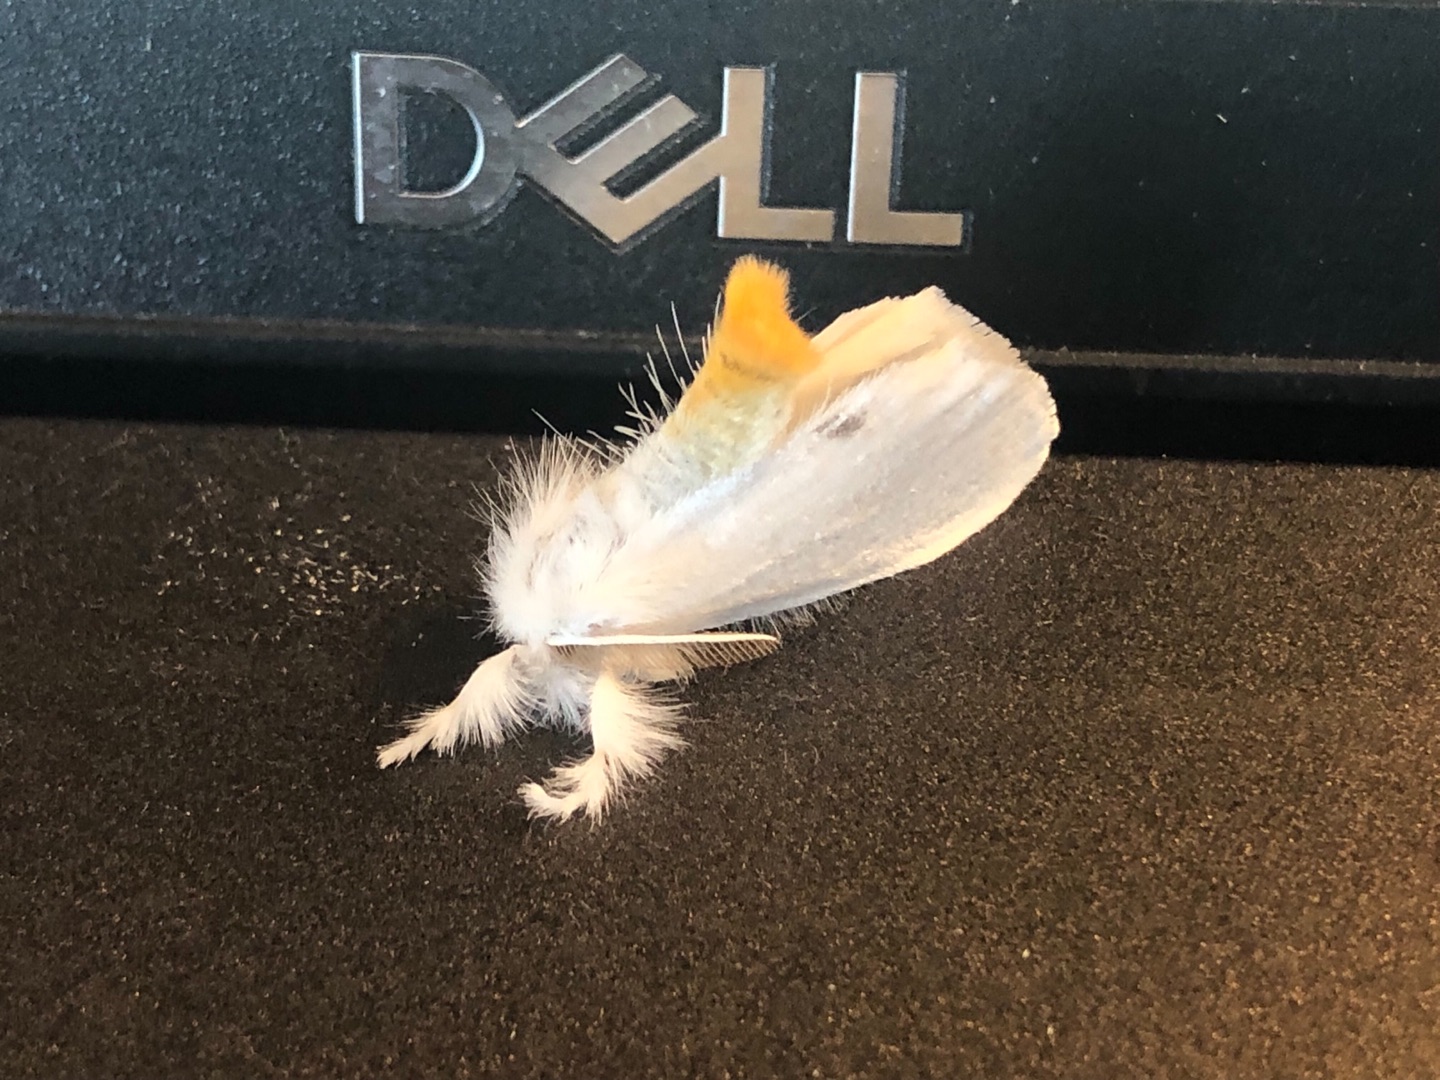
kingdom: Animalia
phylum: Arthropoda
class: Insecta
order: Lepidoptera
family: Erebidae
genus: Sphrageidus
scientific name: Sphrageidus similis
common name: Gulhale
